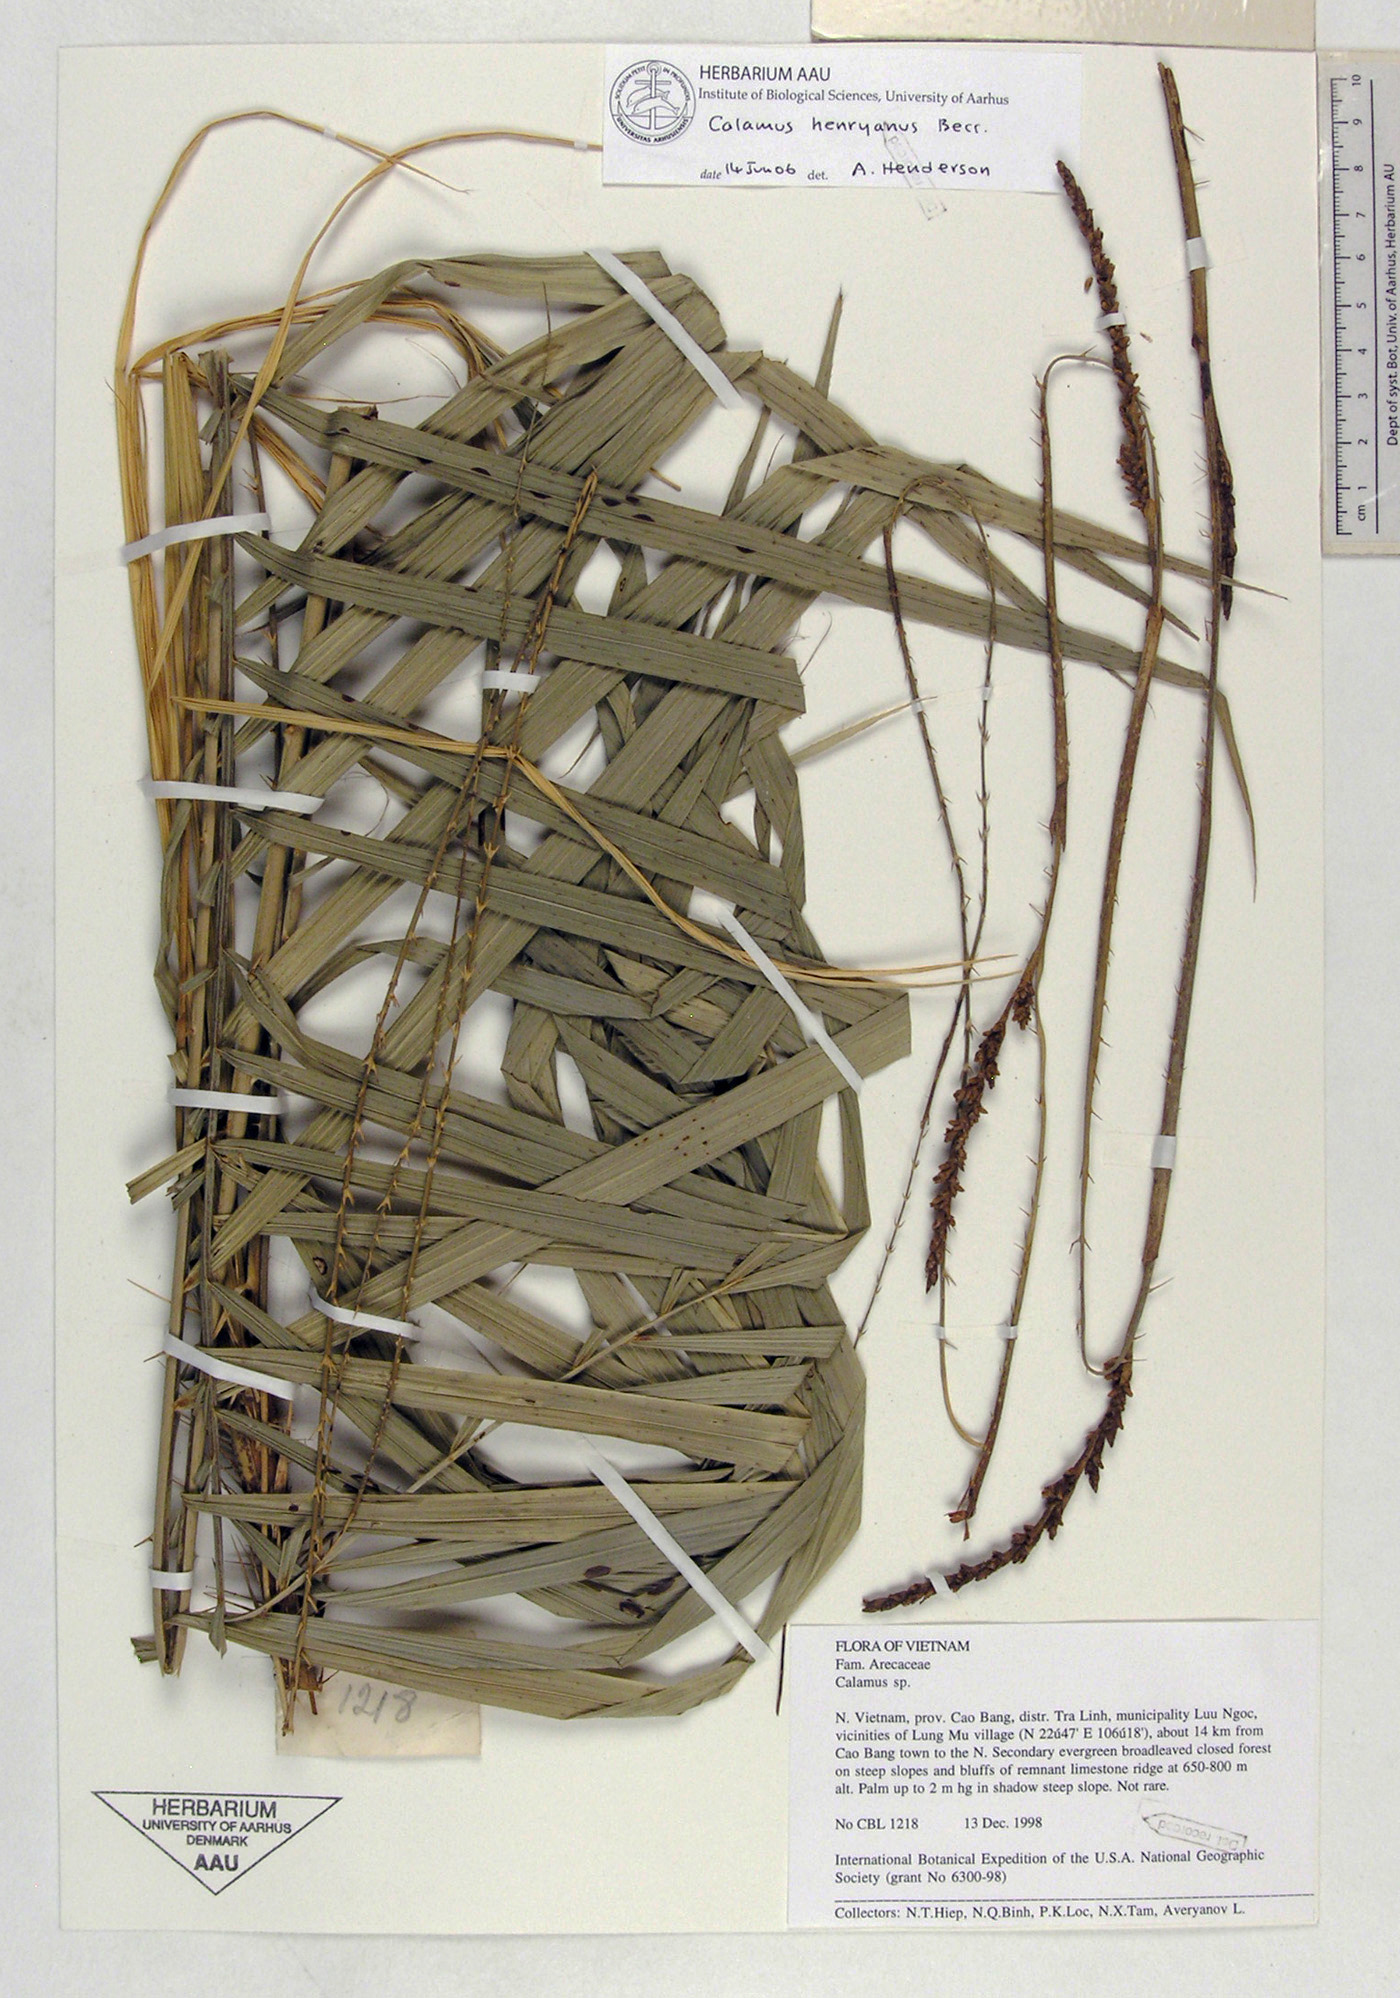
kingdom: Plantae
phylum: Tracheophyta
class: Liliopsida
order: Arecales
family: Arecaceae
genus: Calamus
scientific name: Calamus henryanus
